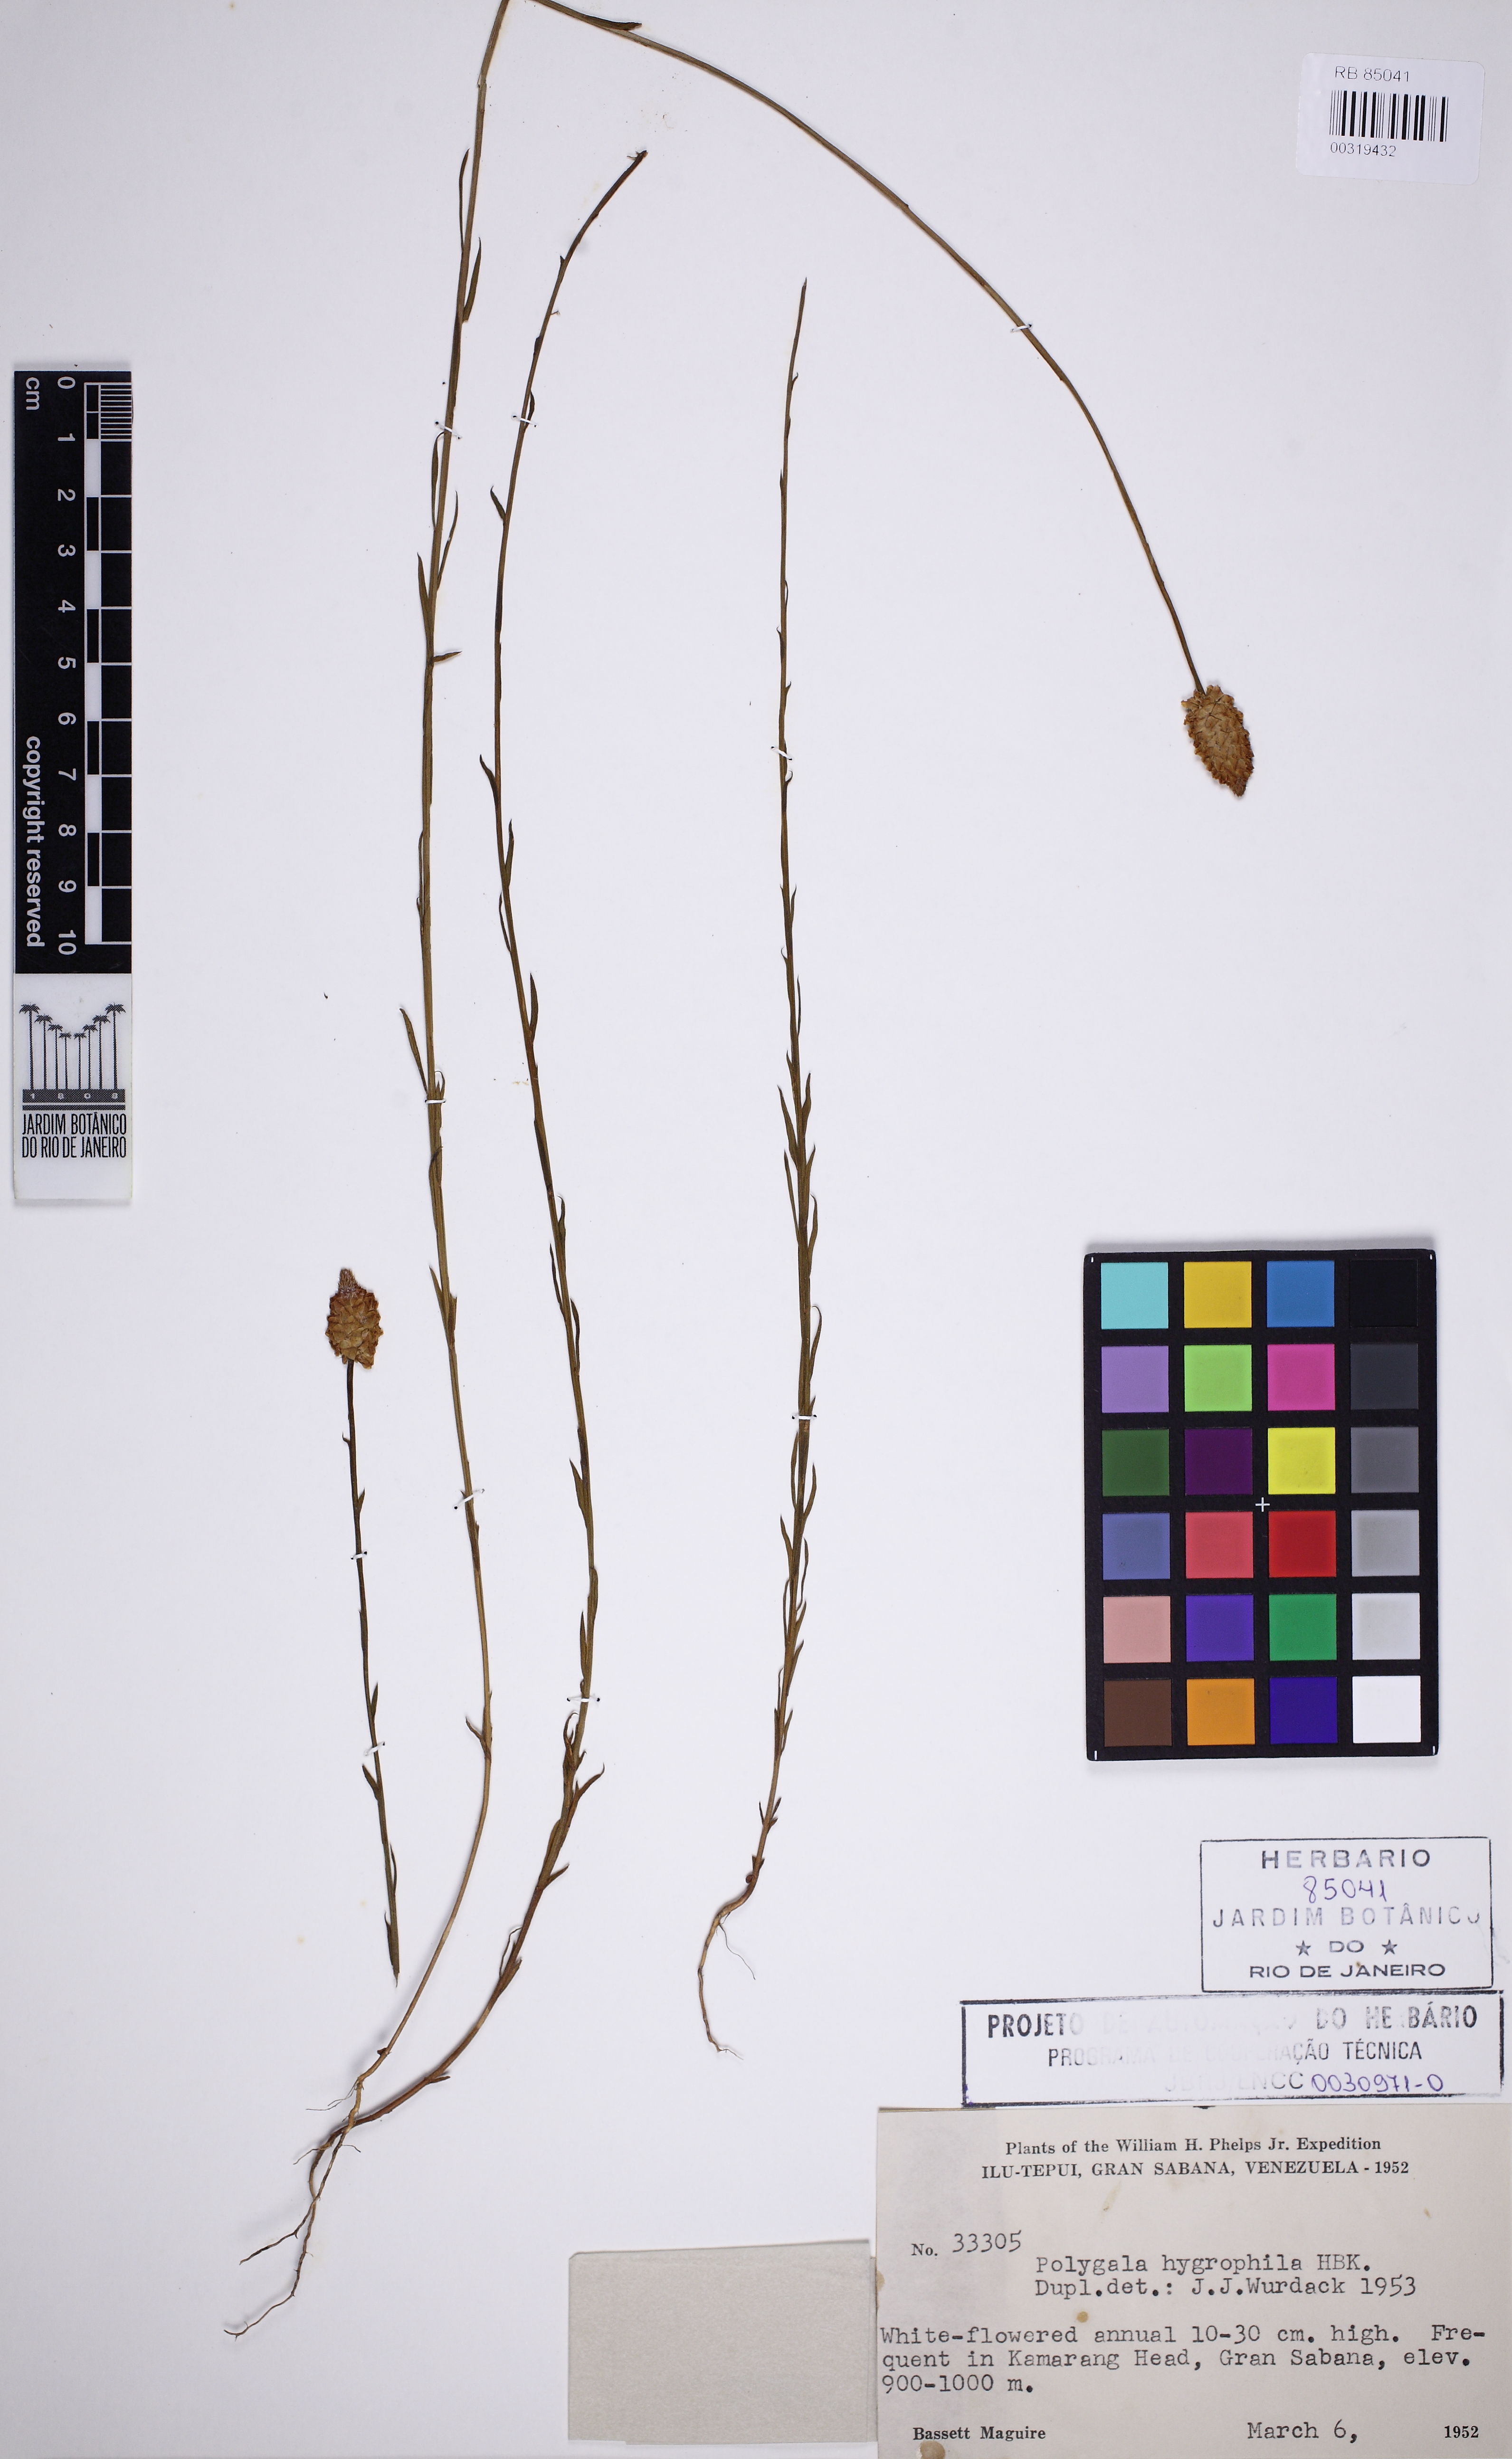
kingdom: Plantae
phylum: Tracheophyta
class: Magnoliopsida
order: Fabales
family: Polygalaceae
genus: Polygala
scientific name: Polygala hygrophila
